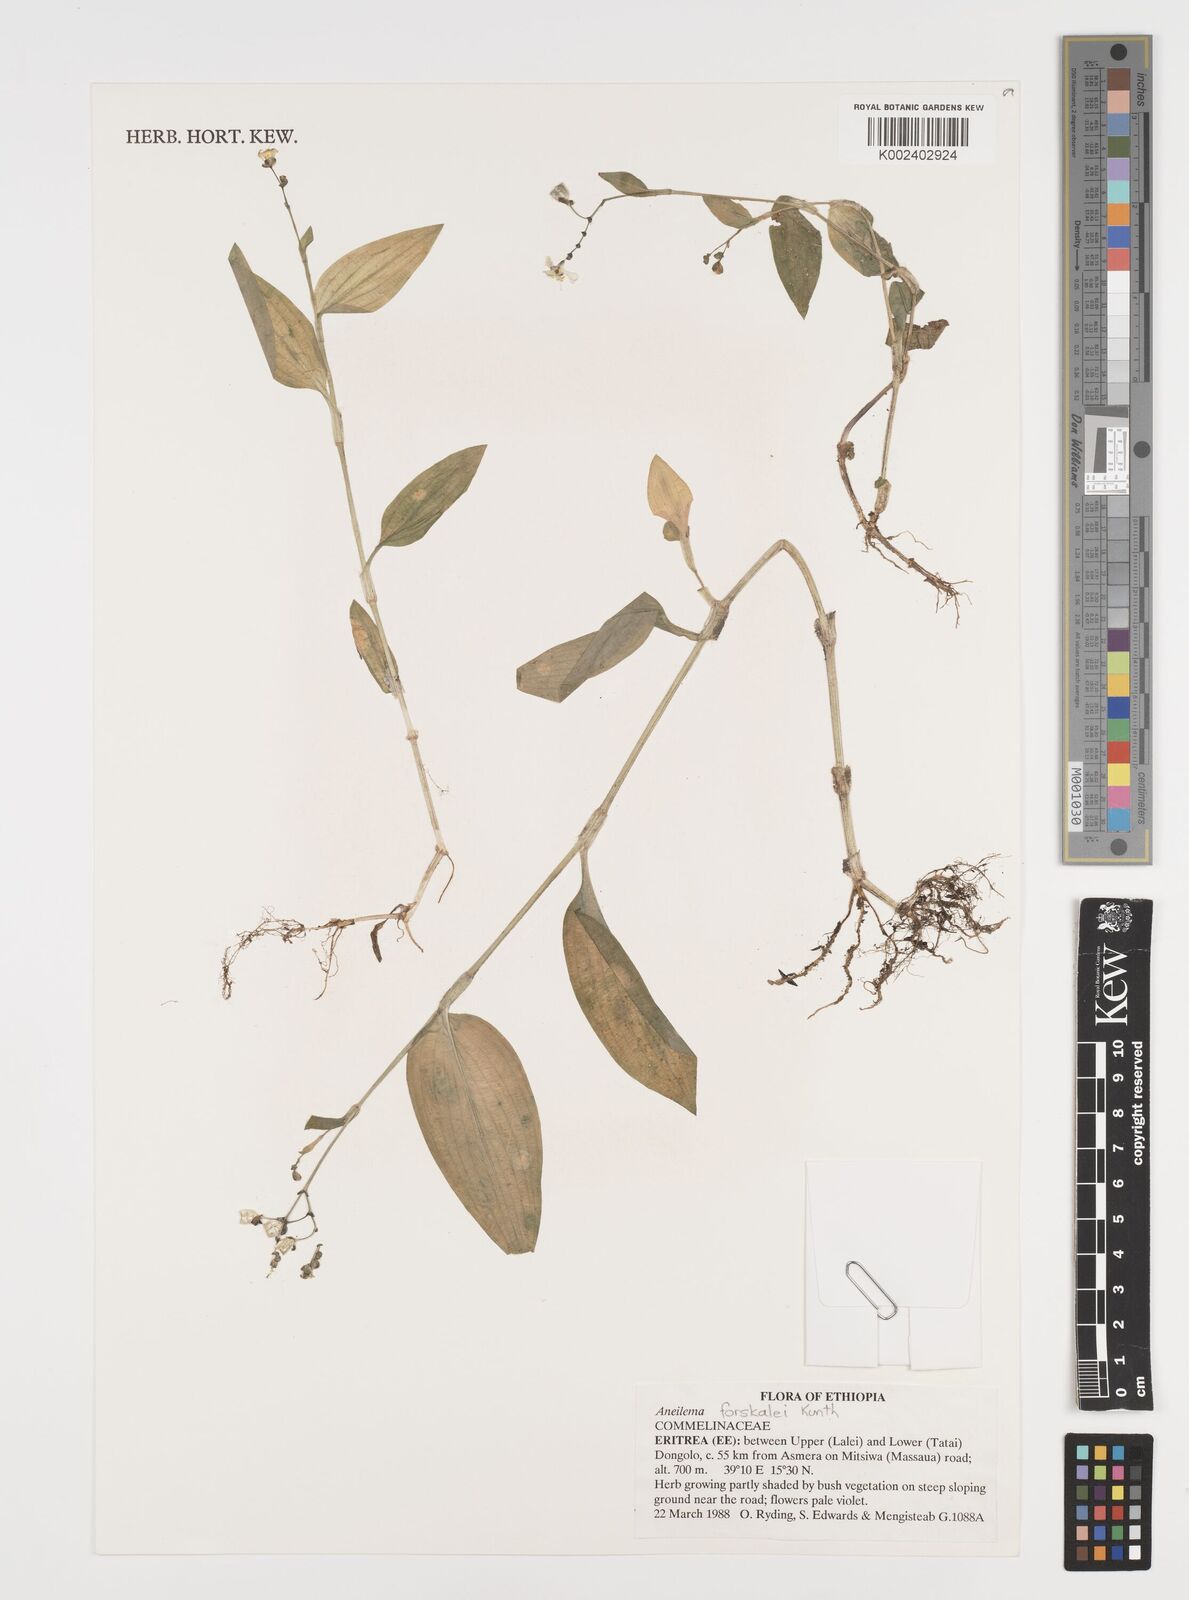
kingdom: Plantae
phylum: Tracheophyta
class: Liliopsida
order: Commelinales
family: Commelinaceae
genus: Aneilema
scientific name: Aneilema forskalii
